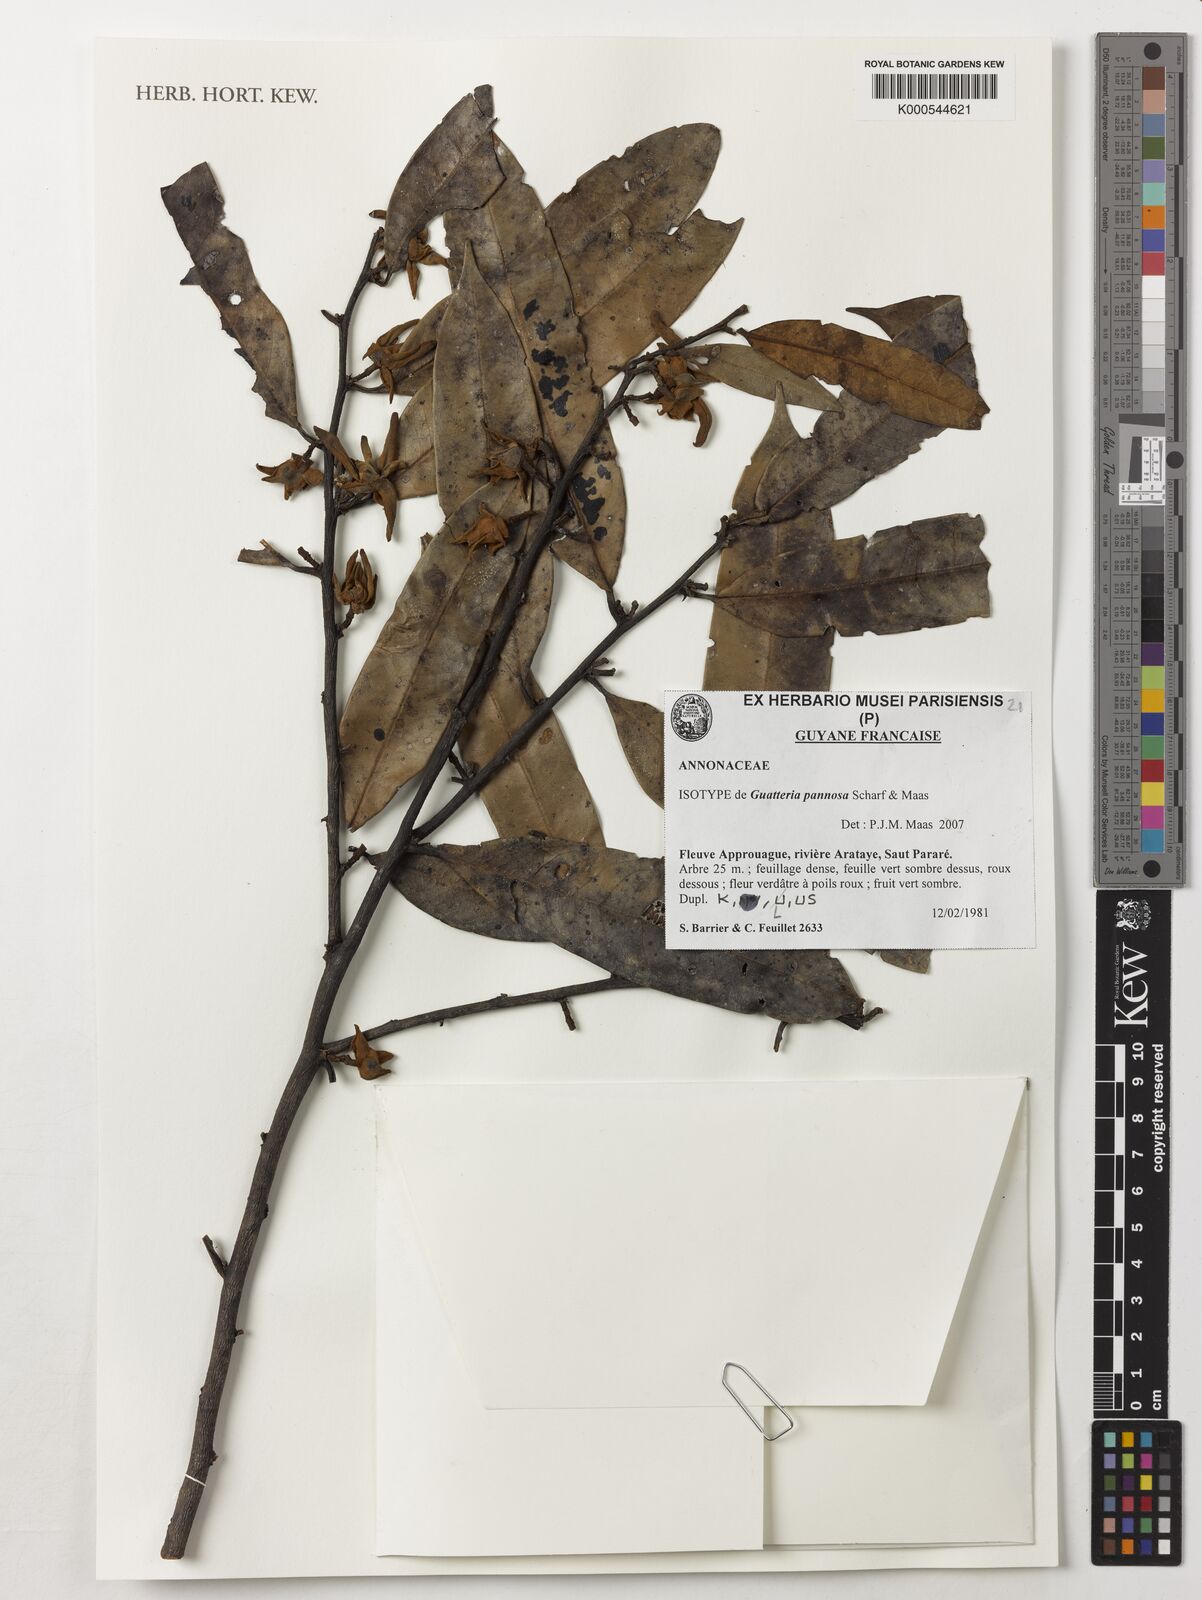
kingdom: Plantae
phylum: Tracheophyta
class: Magnoliopsida
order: Magnoliales
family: Annonaceae
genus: Guatteria
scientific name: Guatteria pannosa
